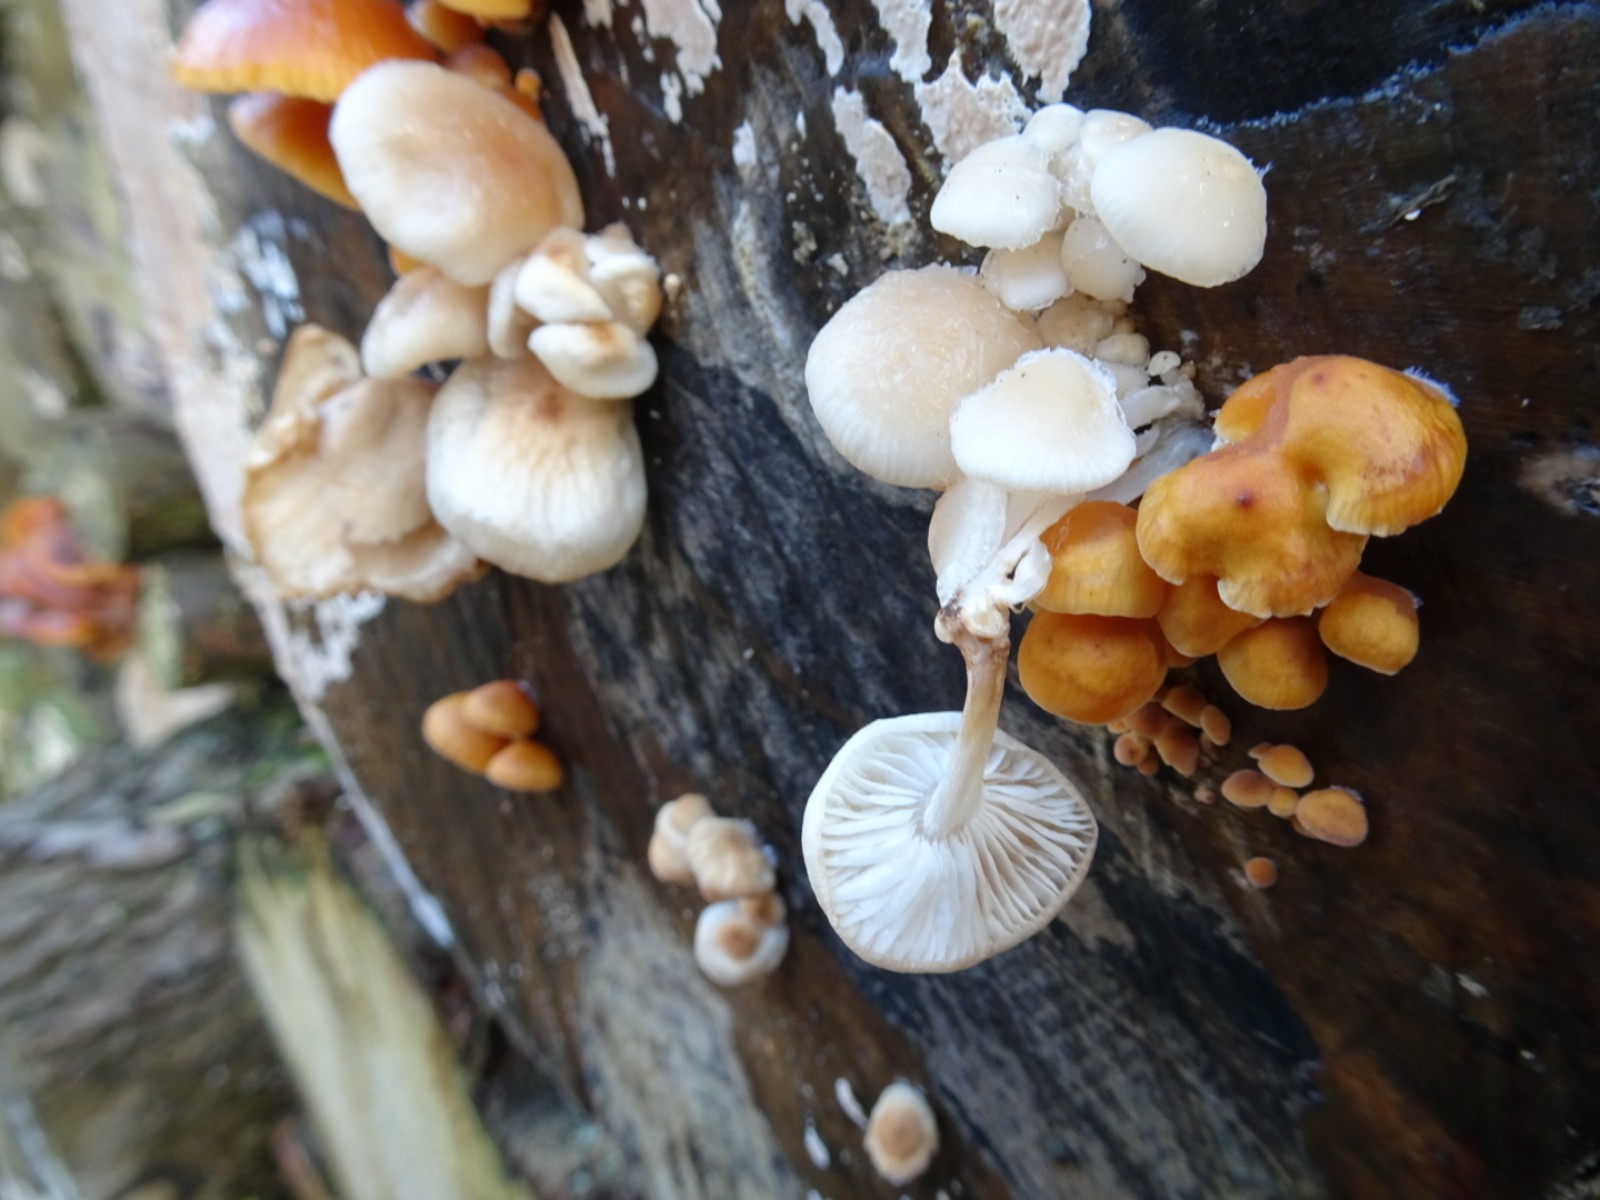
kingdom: Fungi
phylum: Basidiomycota
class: Agaricomycetes
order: Agaricales
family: Physalacriaceae
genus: Flammulina
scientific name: Flammulina velutipes
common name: gul fløjlsfod
